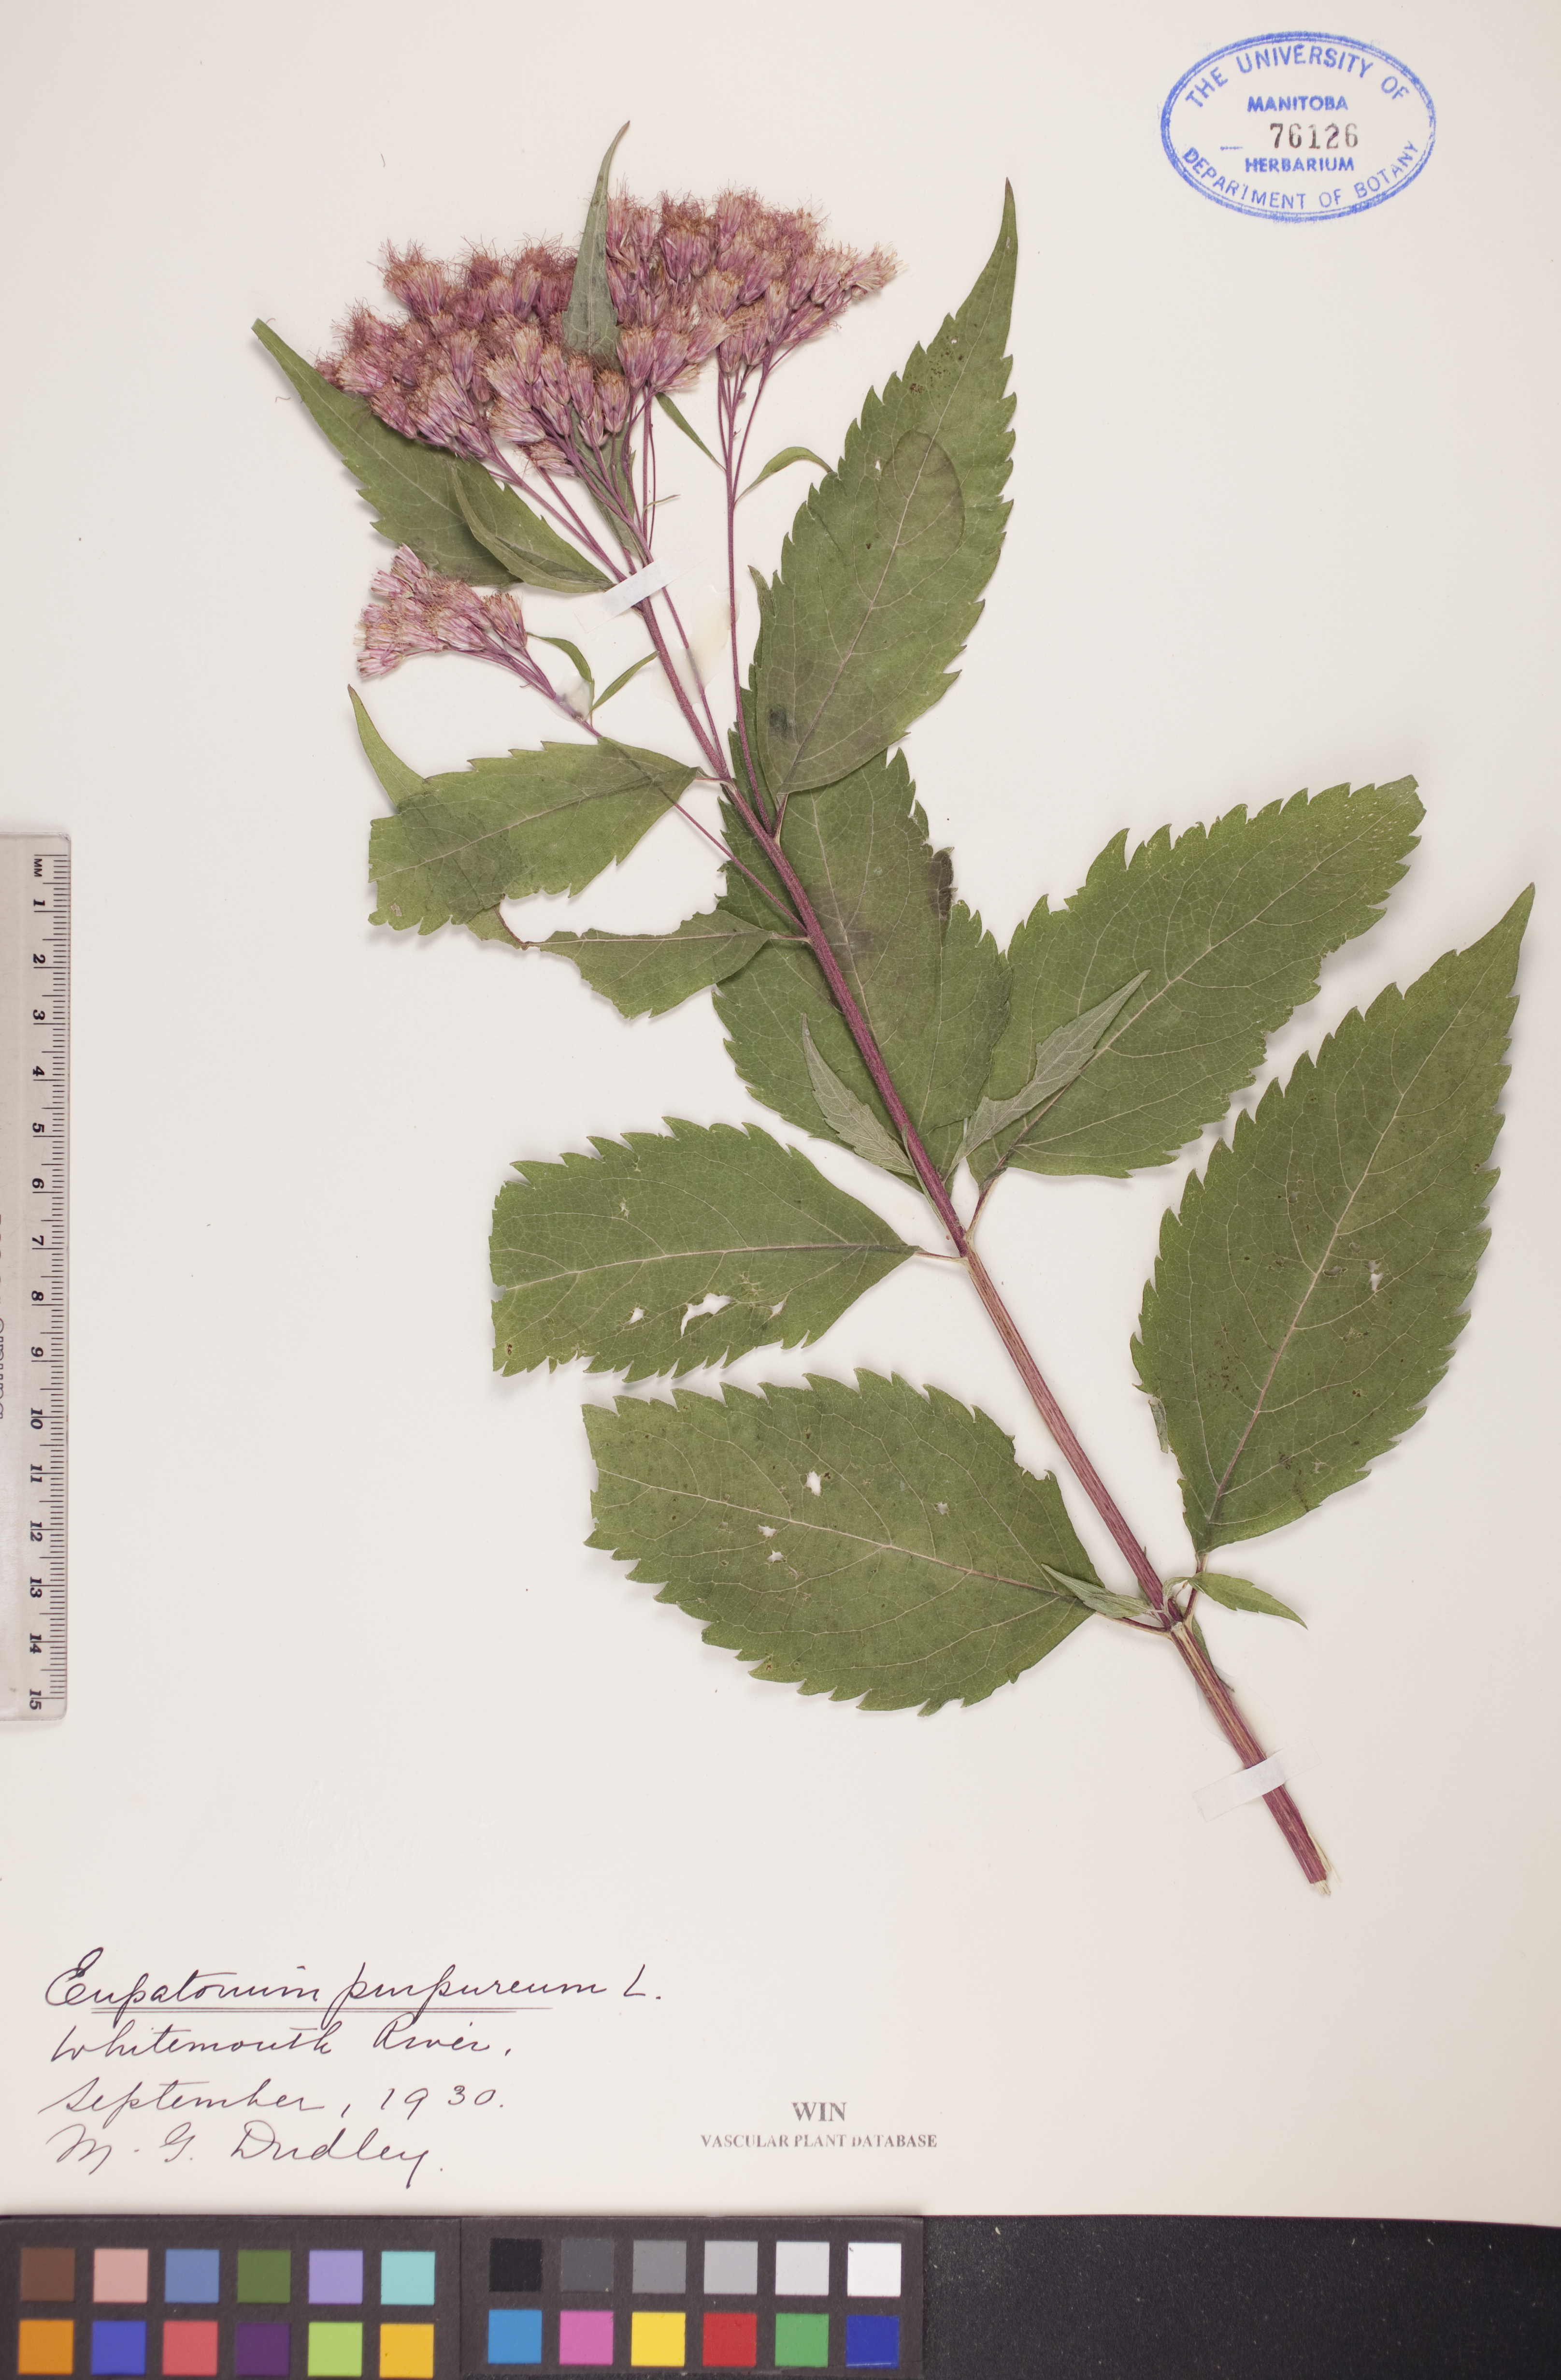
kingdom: Plantae
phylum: Tracheophyta
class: Magnoliopsida
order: Asterales
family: Asteraceae
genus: Eupatorium
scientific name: Eupatorium quaternum
